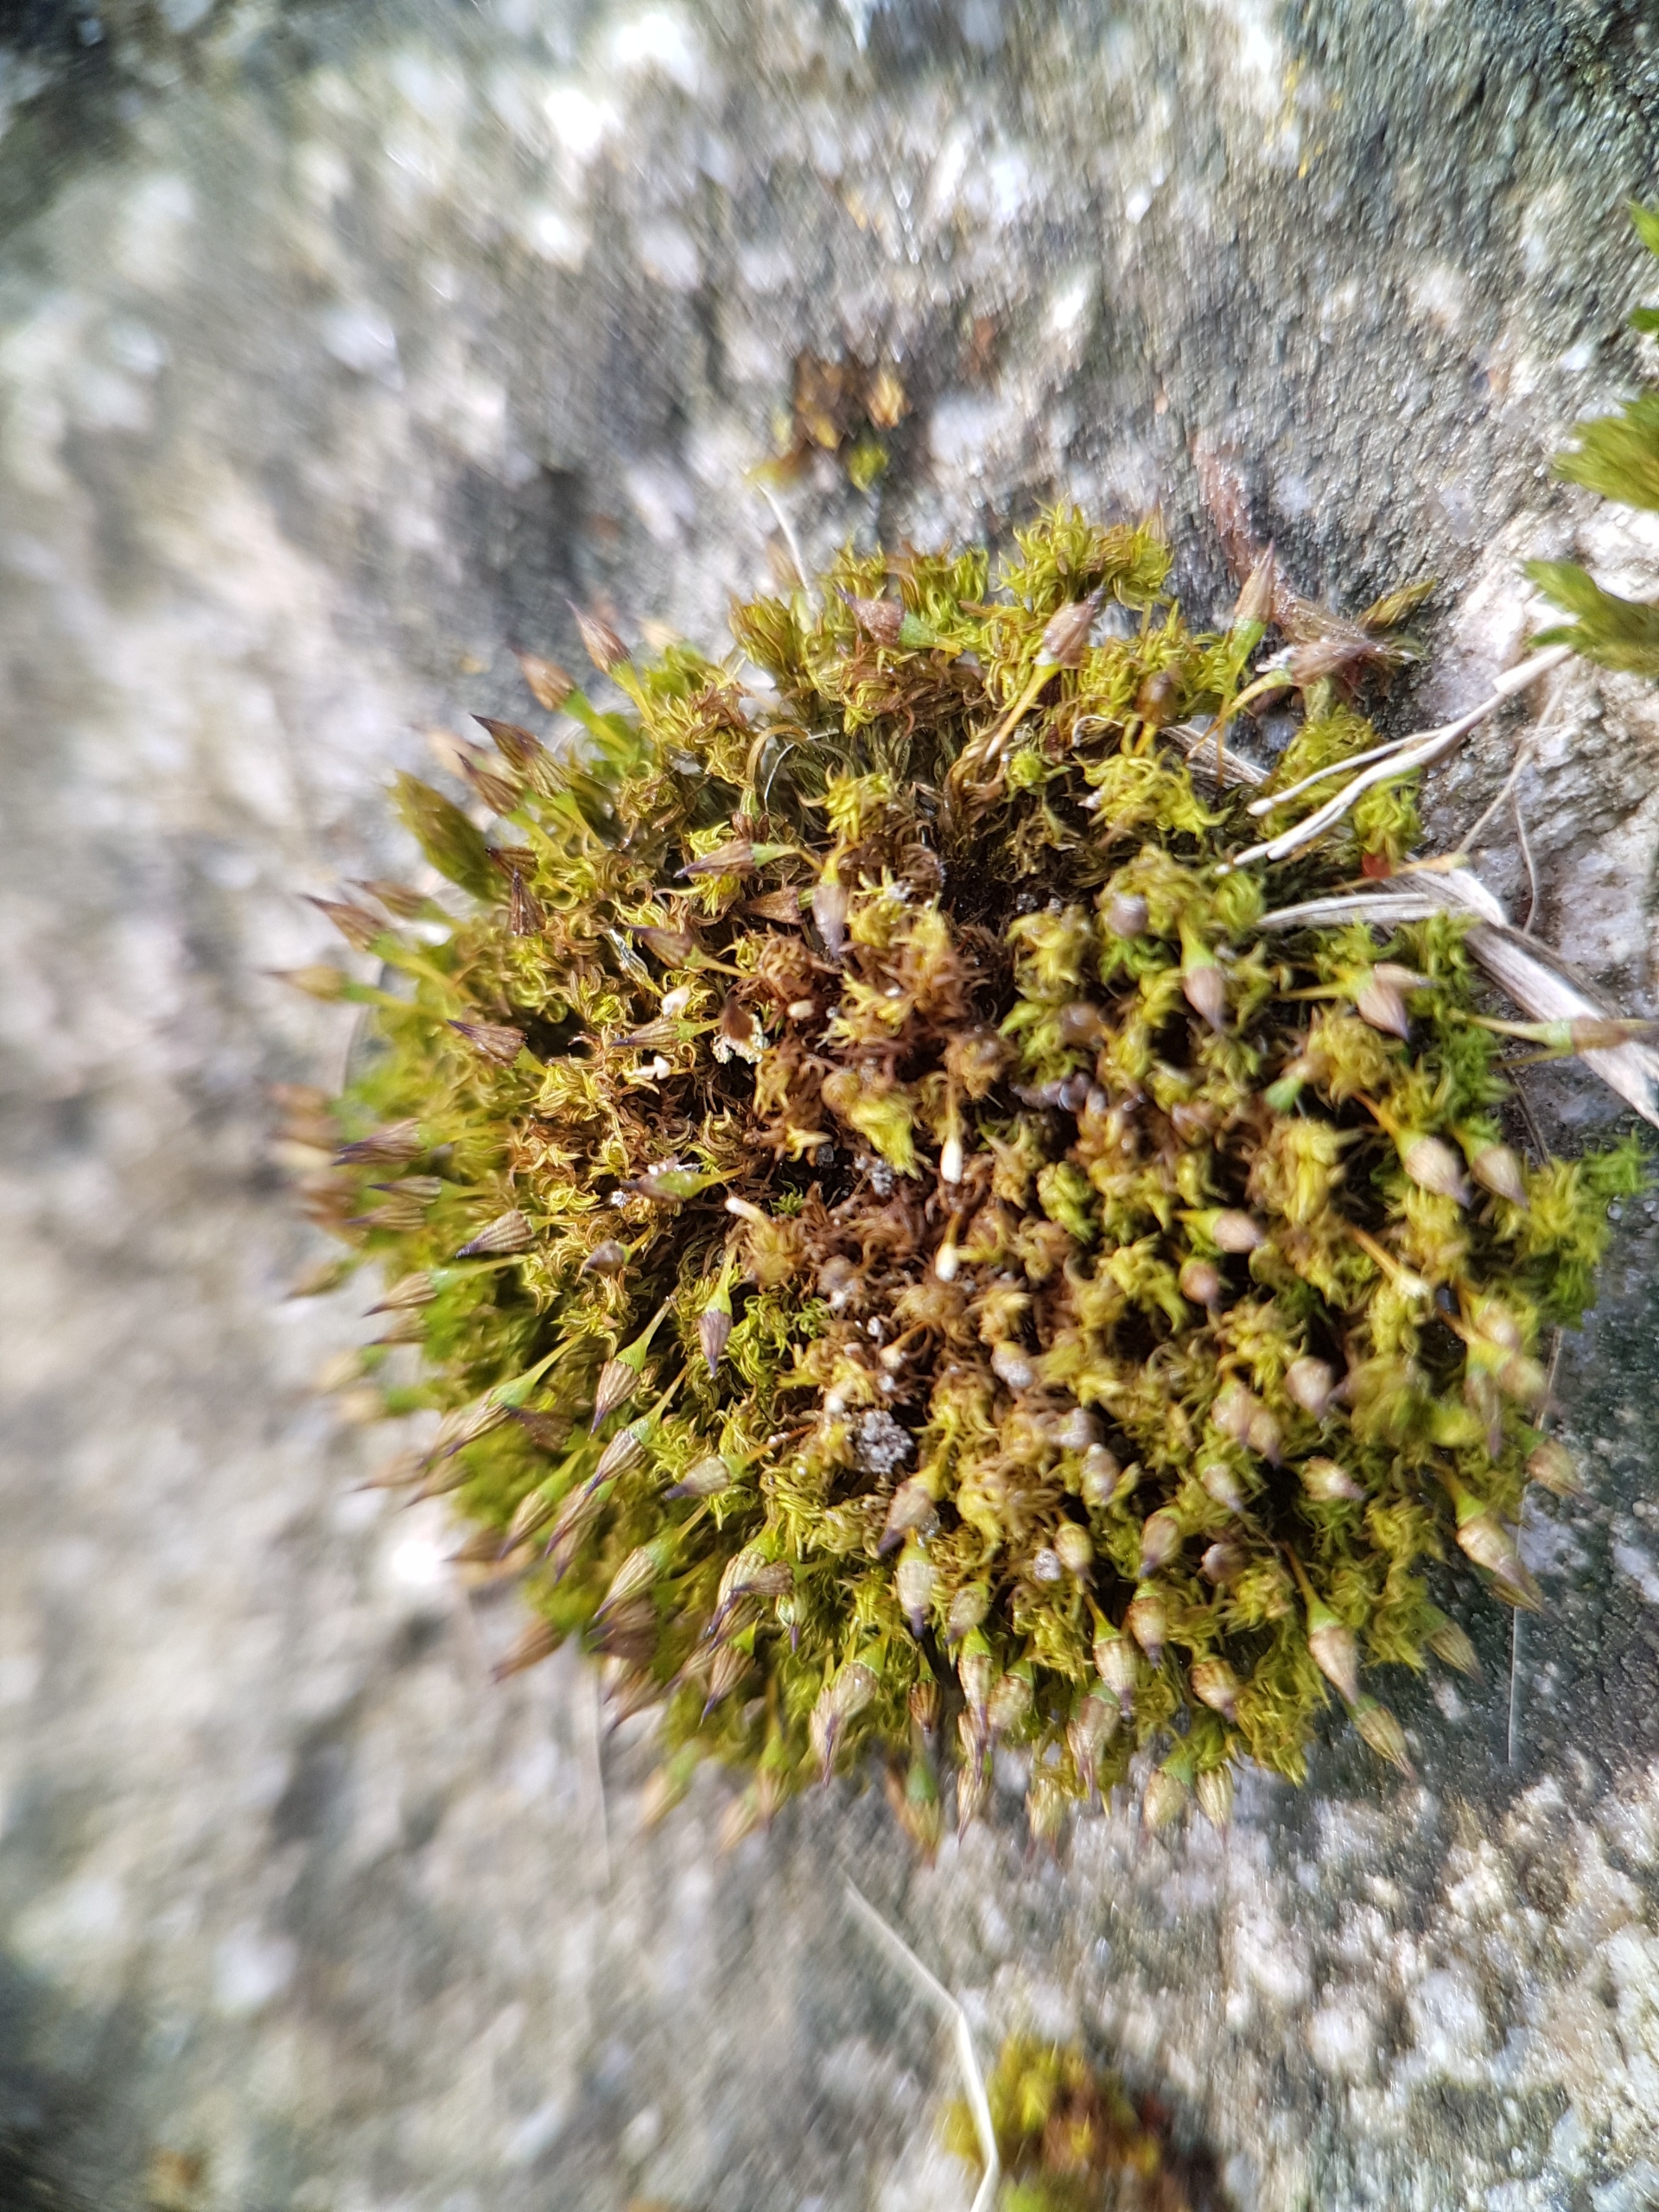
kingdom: Plantae
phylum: Bryophyta
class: Bryopsida
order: Orthotrichales
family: Orthotrichaceae
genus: Orthotrichum
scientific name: Orthotrichum pulchellum
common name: Smuk furehætte
